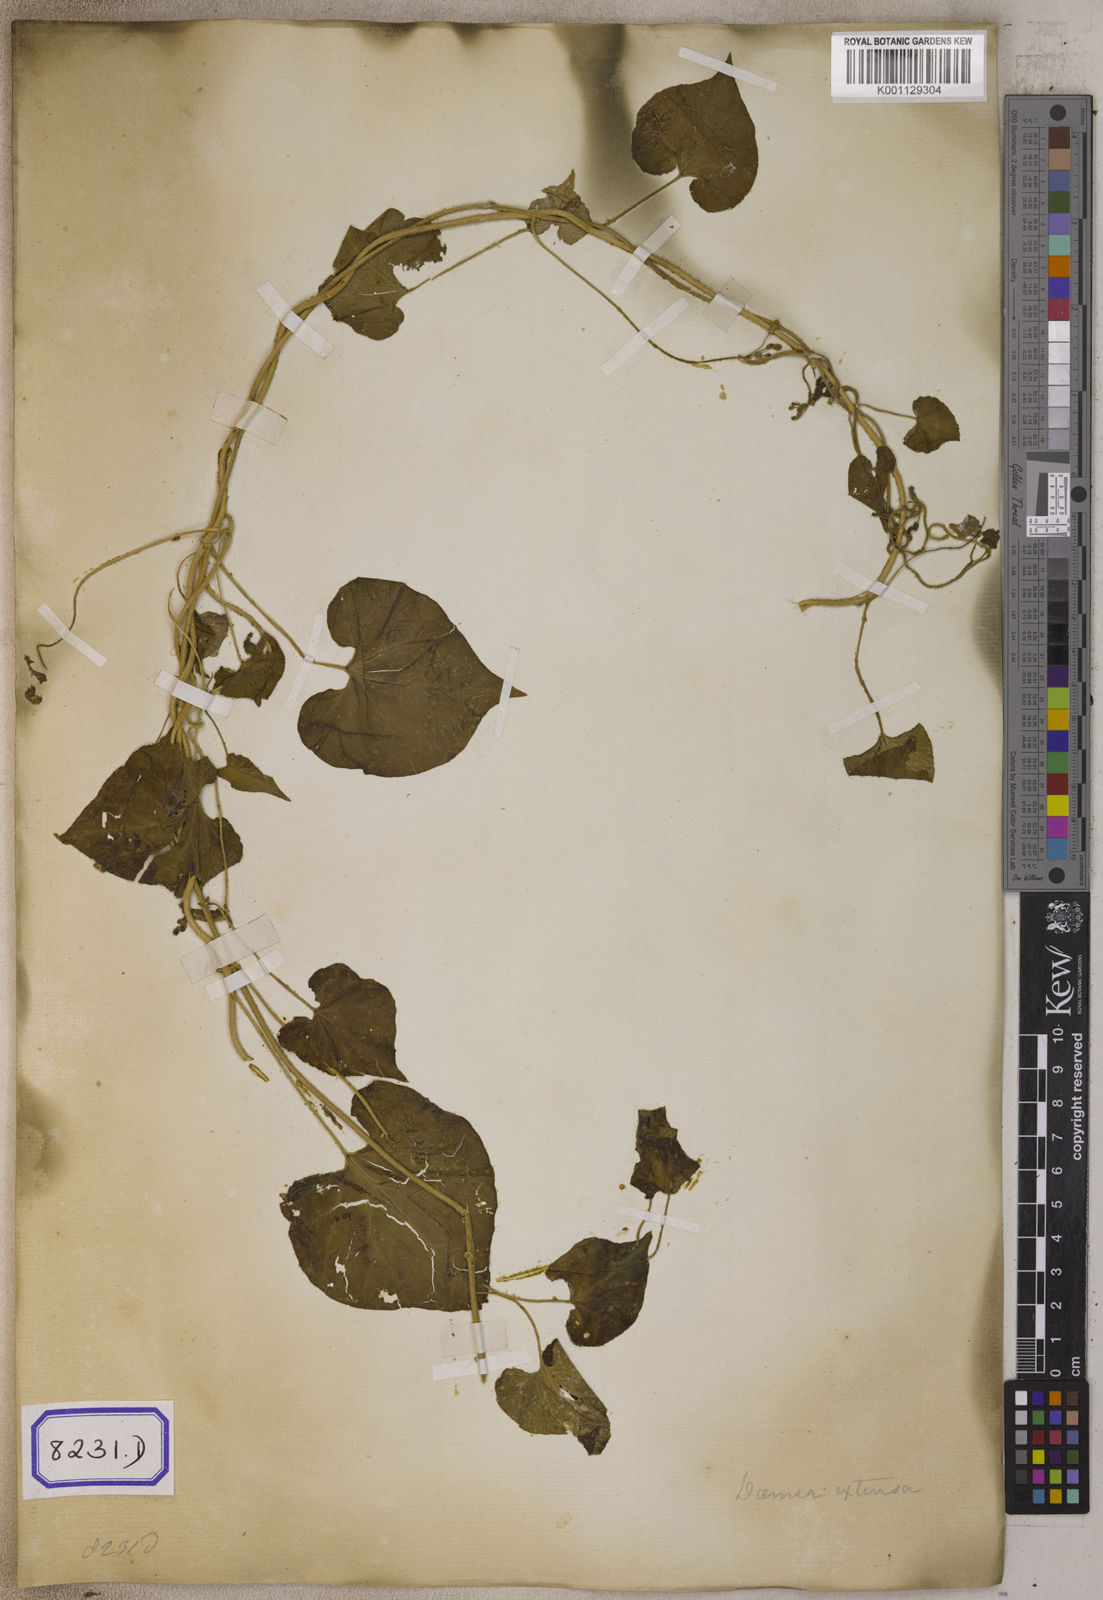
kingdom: Plantae
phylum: Tracheophyta
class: Magnoliopsida
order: Gentianales
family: Apocynaceae
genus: Pergularia
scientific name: Pergularia
